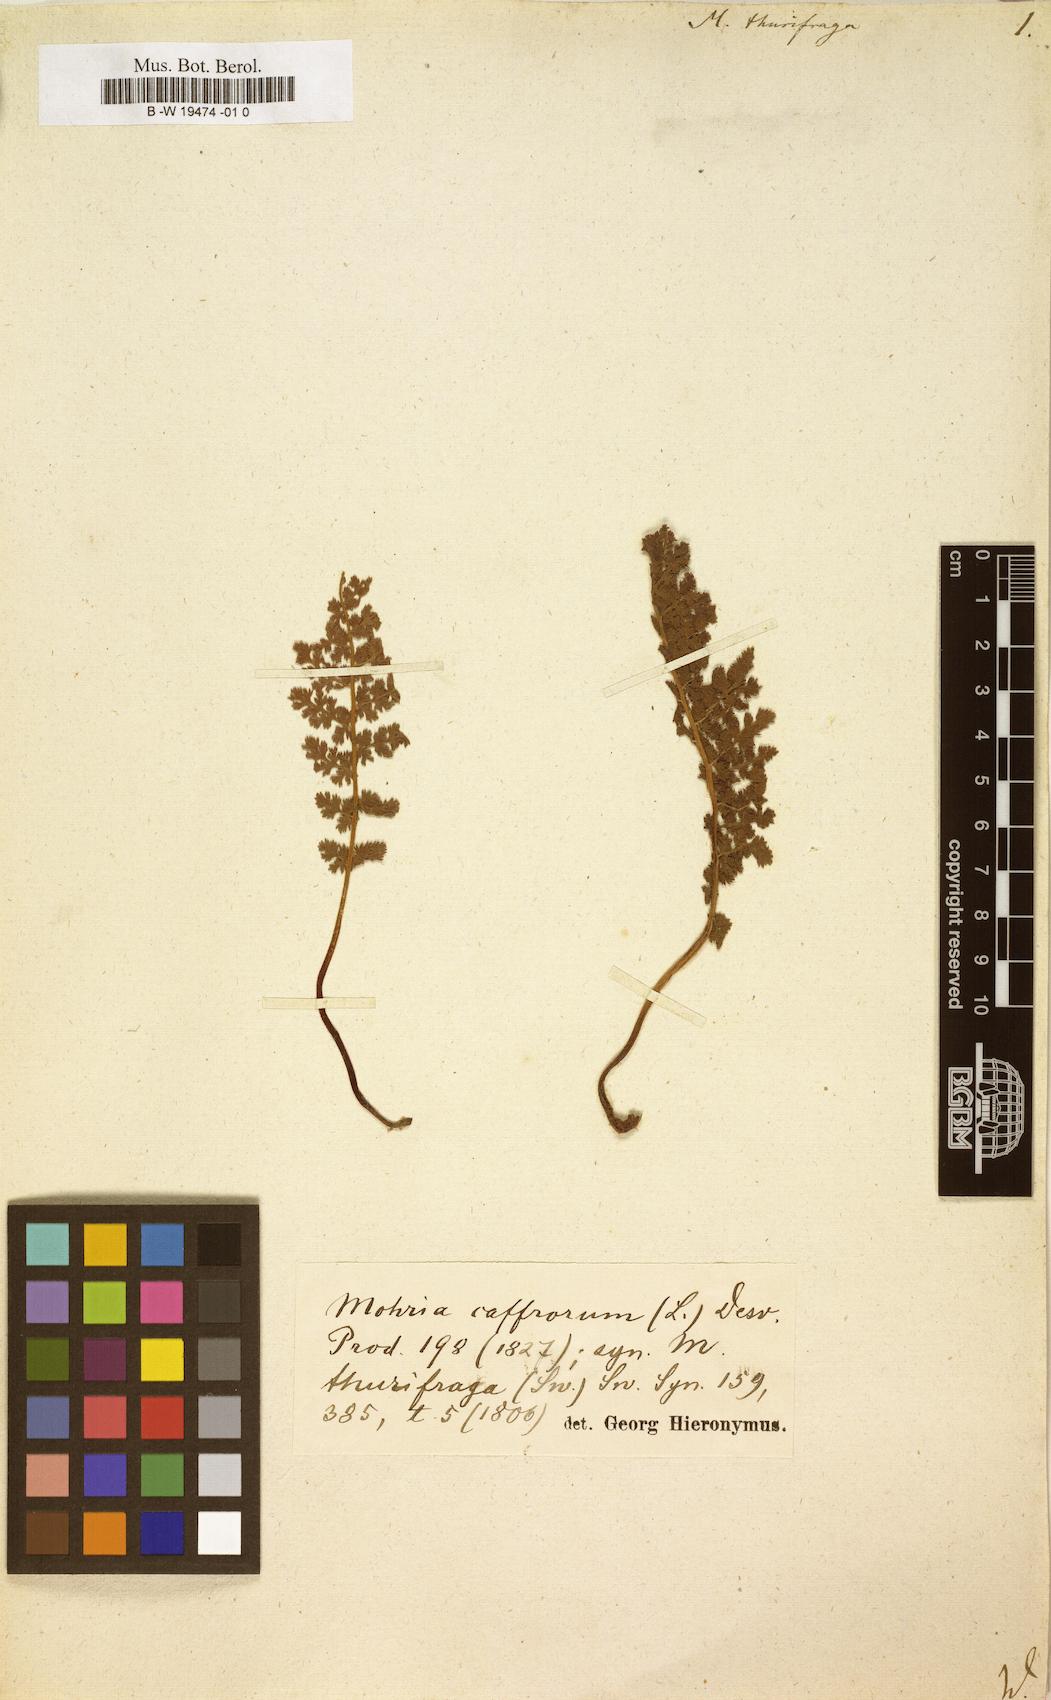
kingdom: Plantae
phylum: Tracheophyta
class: Polypodiopsida
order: Schizaeales
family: Anemiaceae
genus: Anemia
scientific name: Anemia caffrorum
